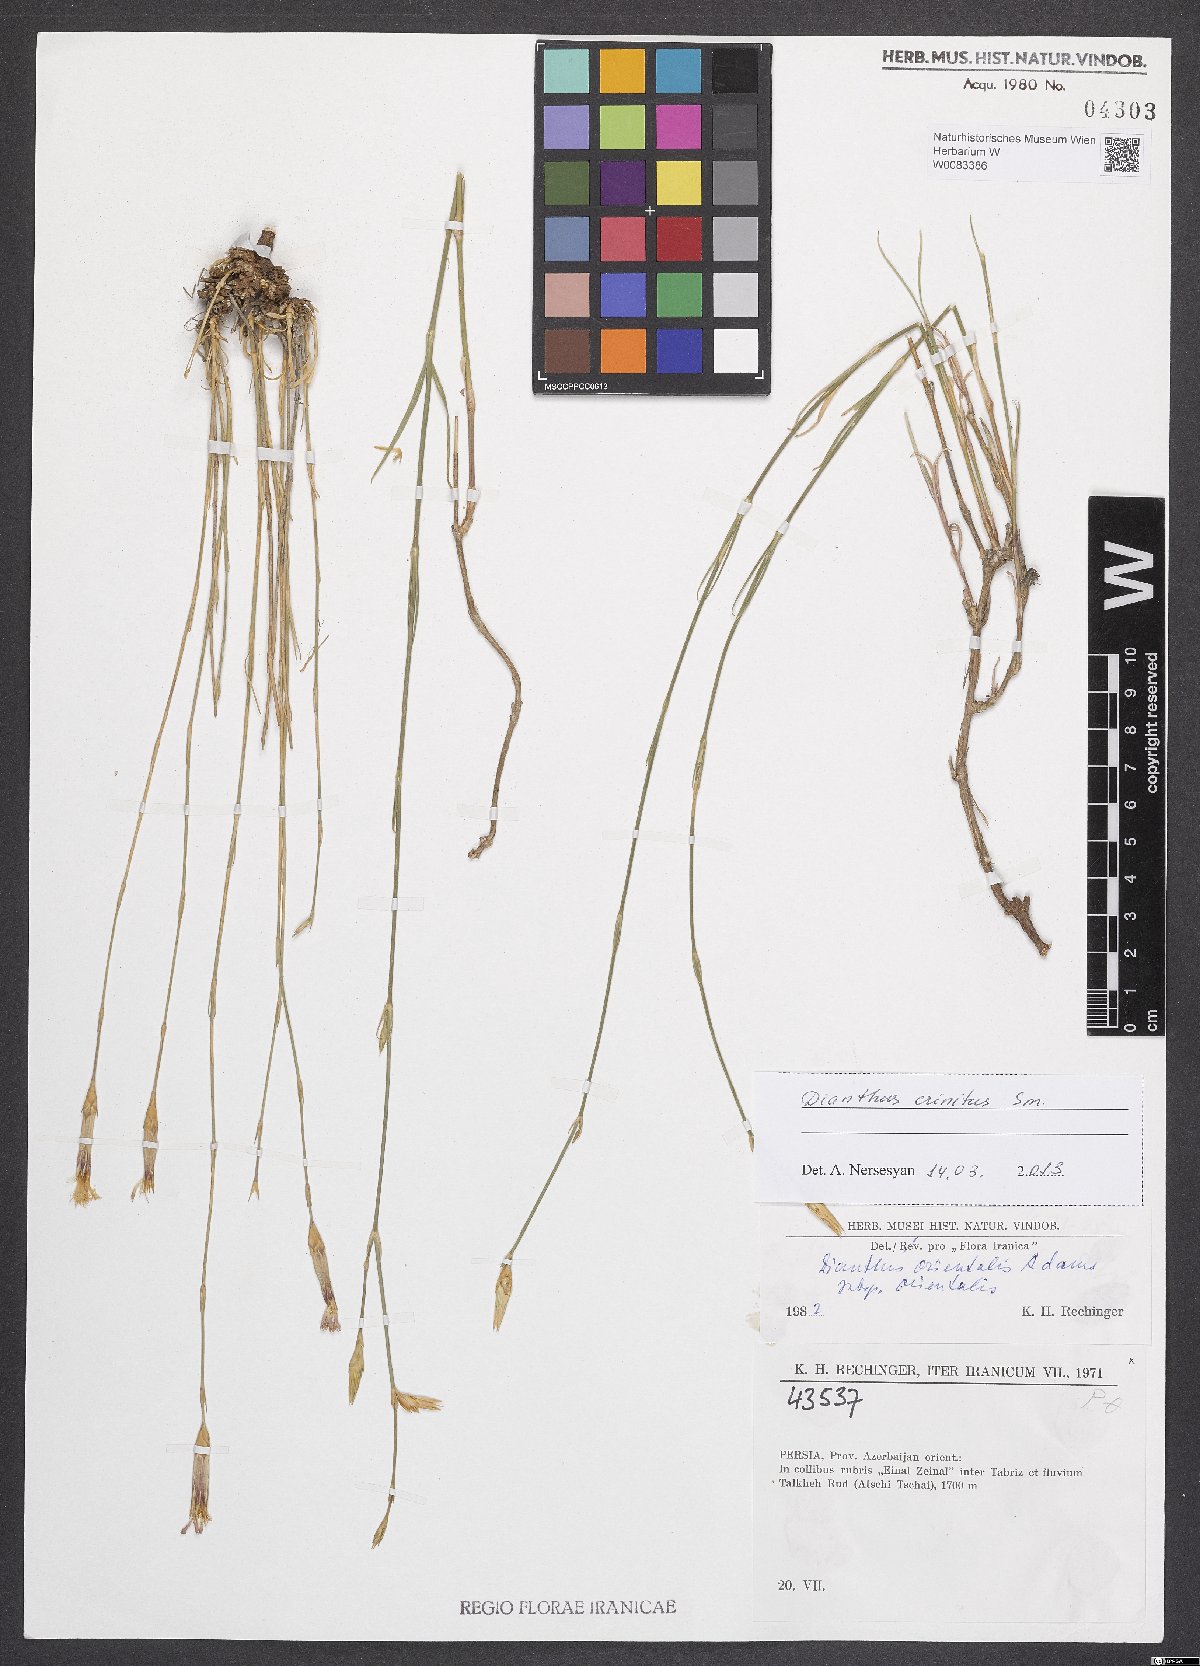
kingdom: Plantae
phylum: Tracheophyta
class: Magnoliopsida
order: Caryophyllales
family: Caryophyllaceae
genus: Dianthus
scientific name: Dianthus crinitus
